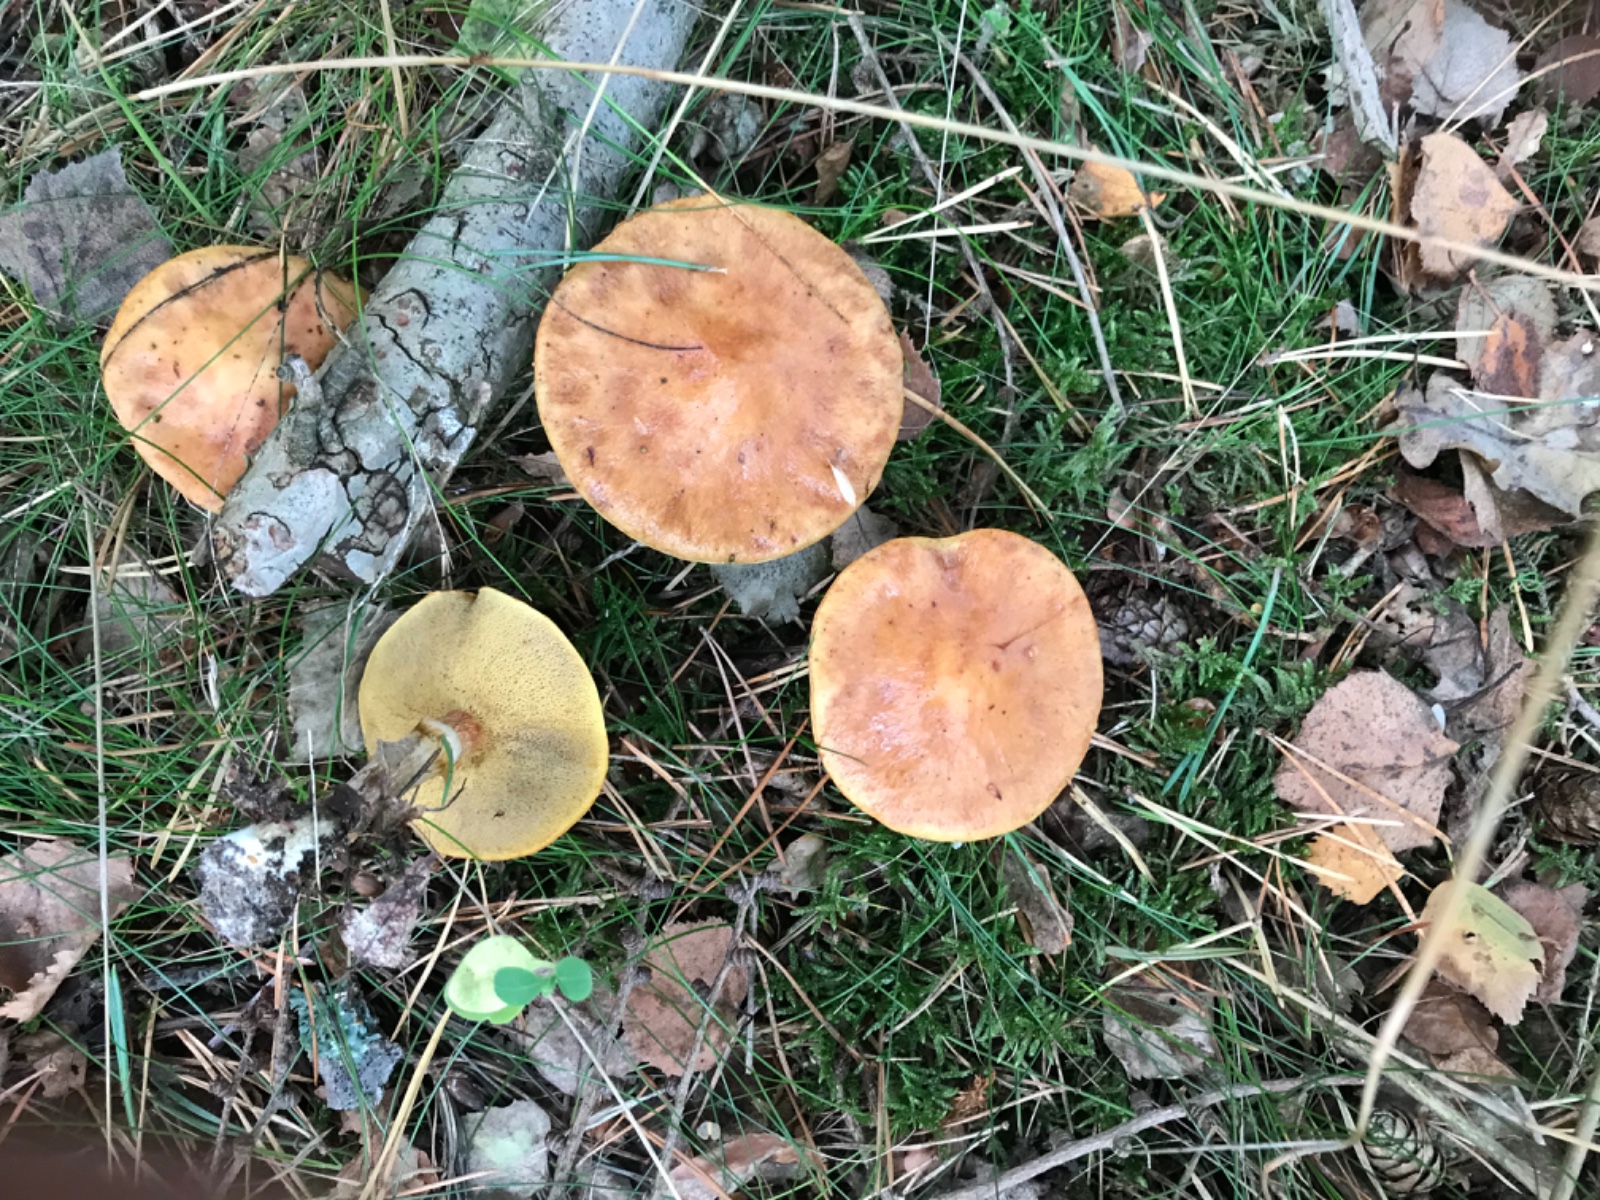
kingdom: Fungi
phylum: Basidiomycota
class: Agaricomycetes
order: Boletales
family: Suillaceae
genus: Suillus
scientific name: Suillus grevillei
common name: lærke-slimrørhat
